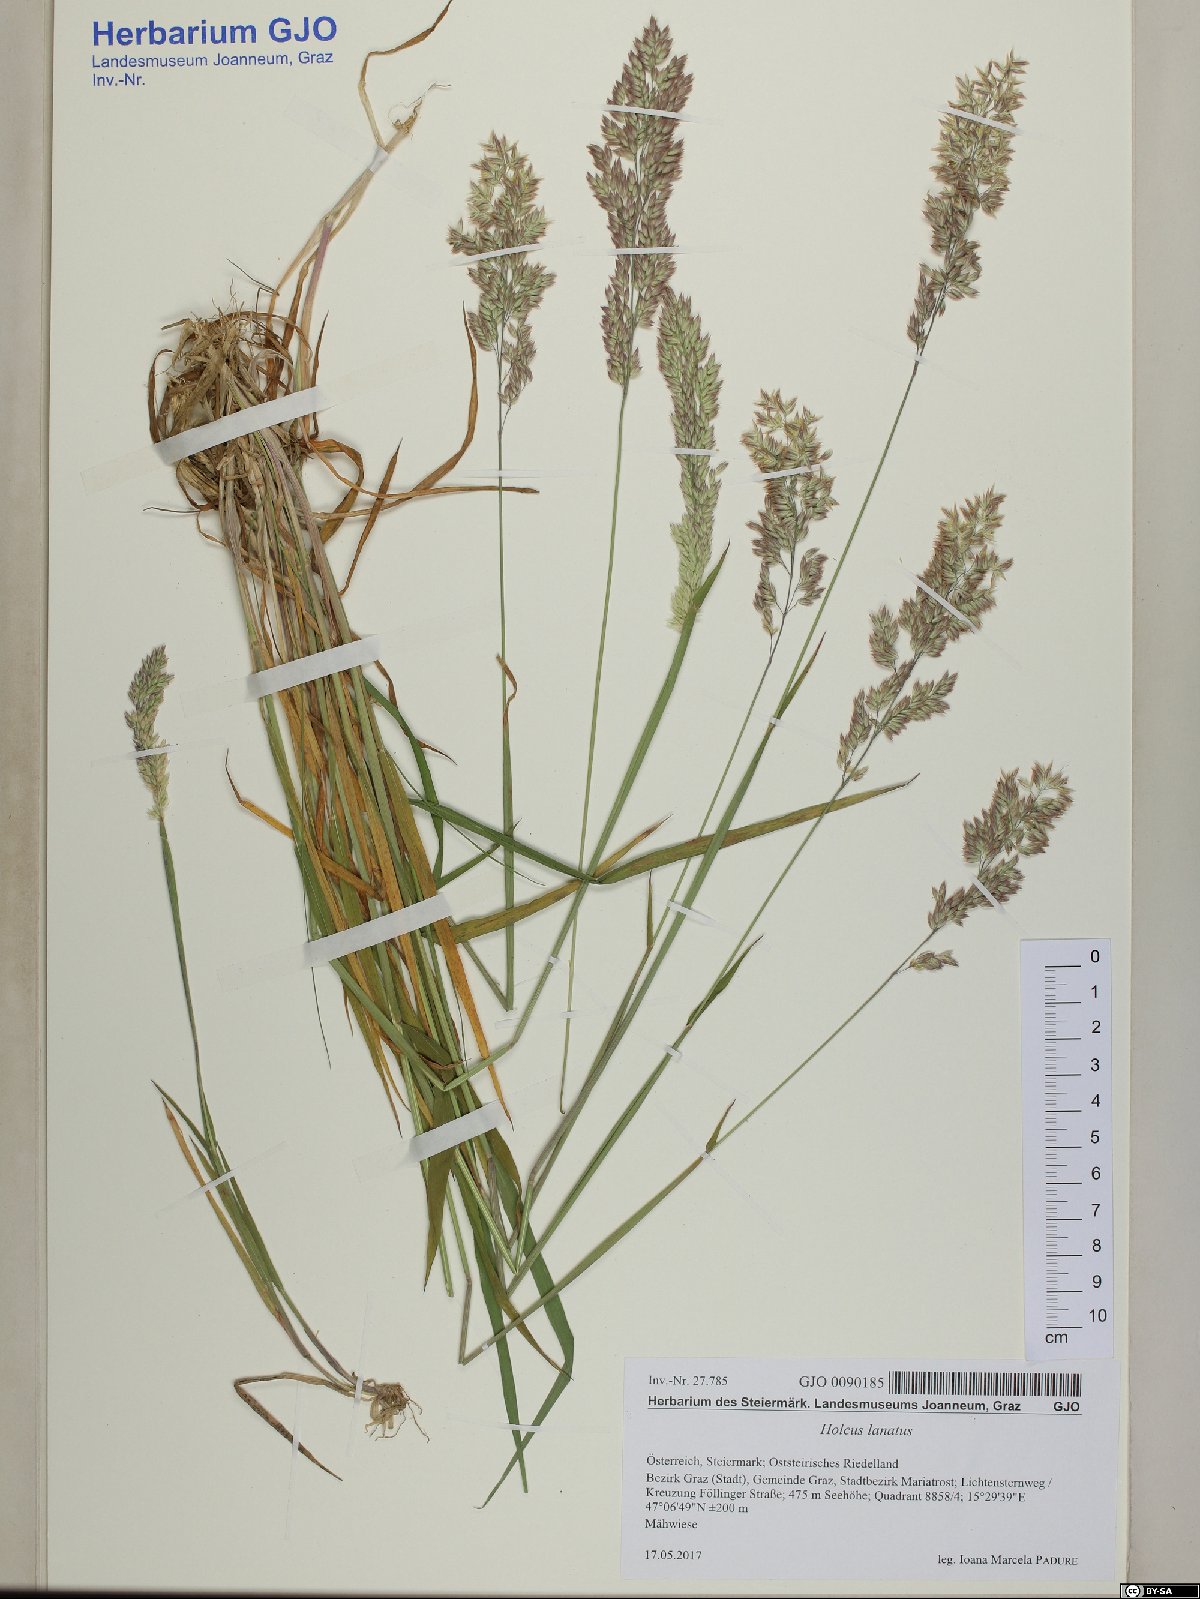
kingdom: Plantae
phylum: Tracheophyta
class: Liliopsida
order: Poales
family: Poaceae
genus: Holcus
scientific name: Holcus lanatus
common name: Yorkshire-fog
